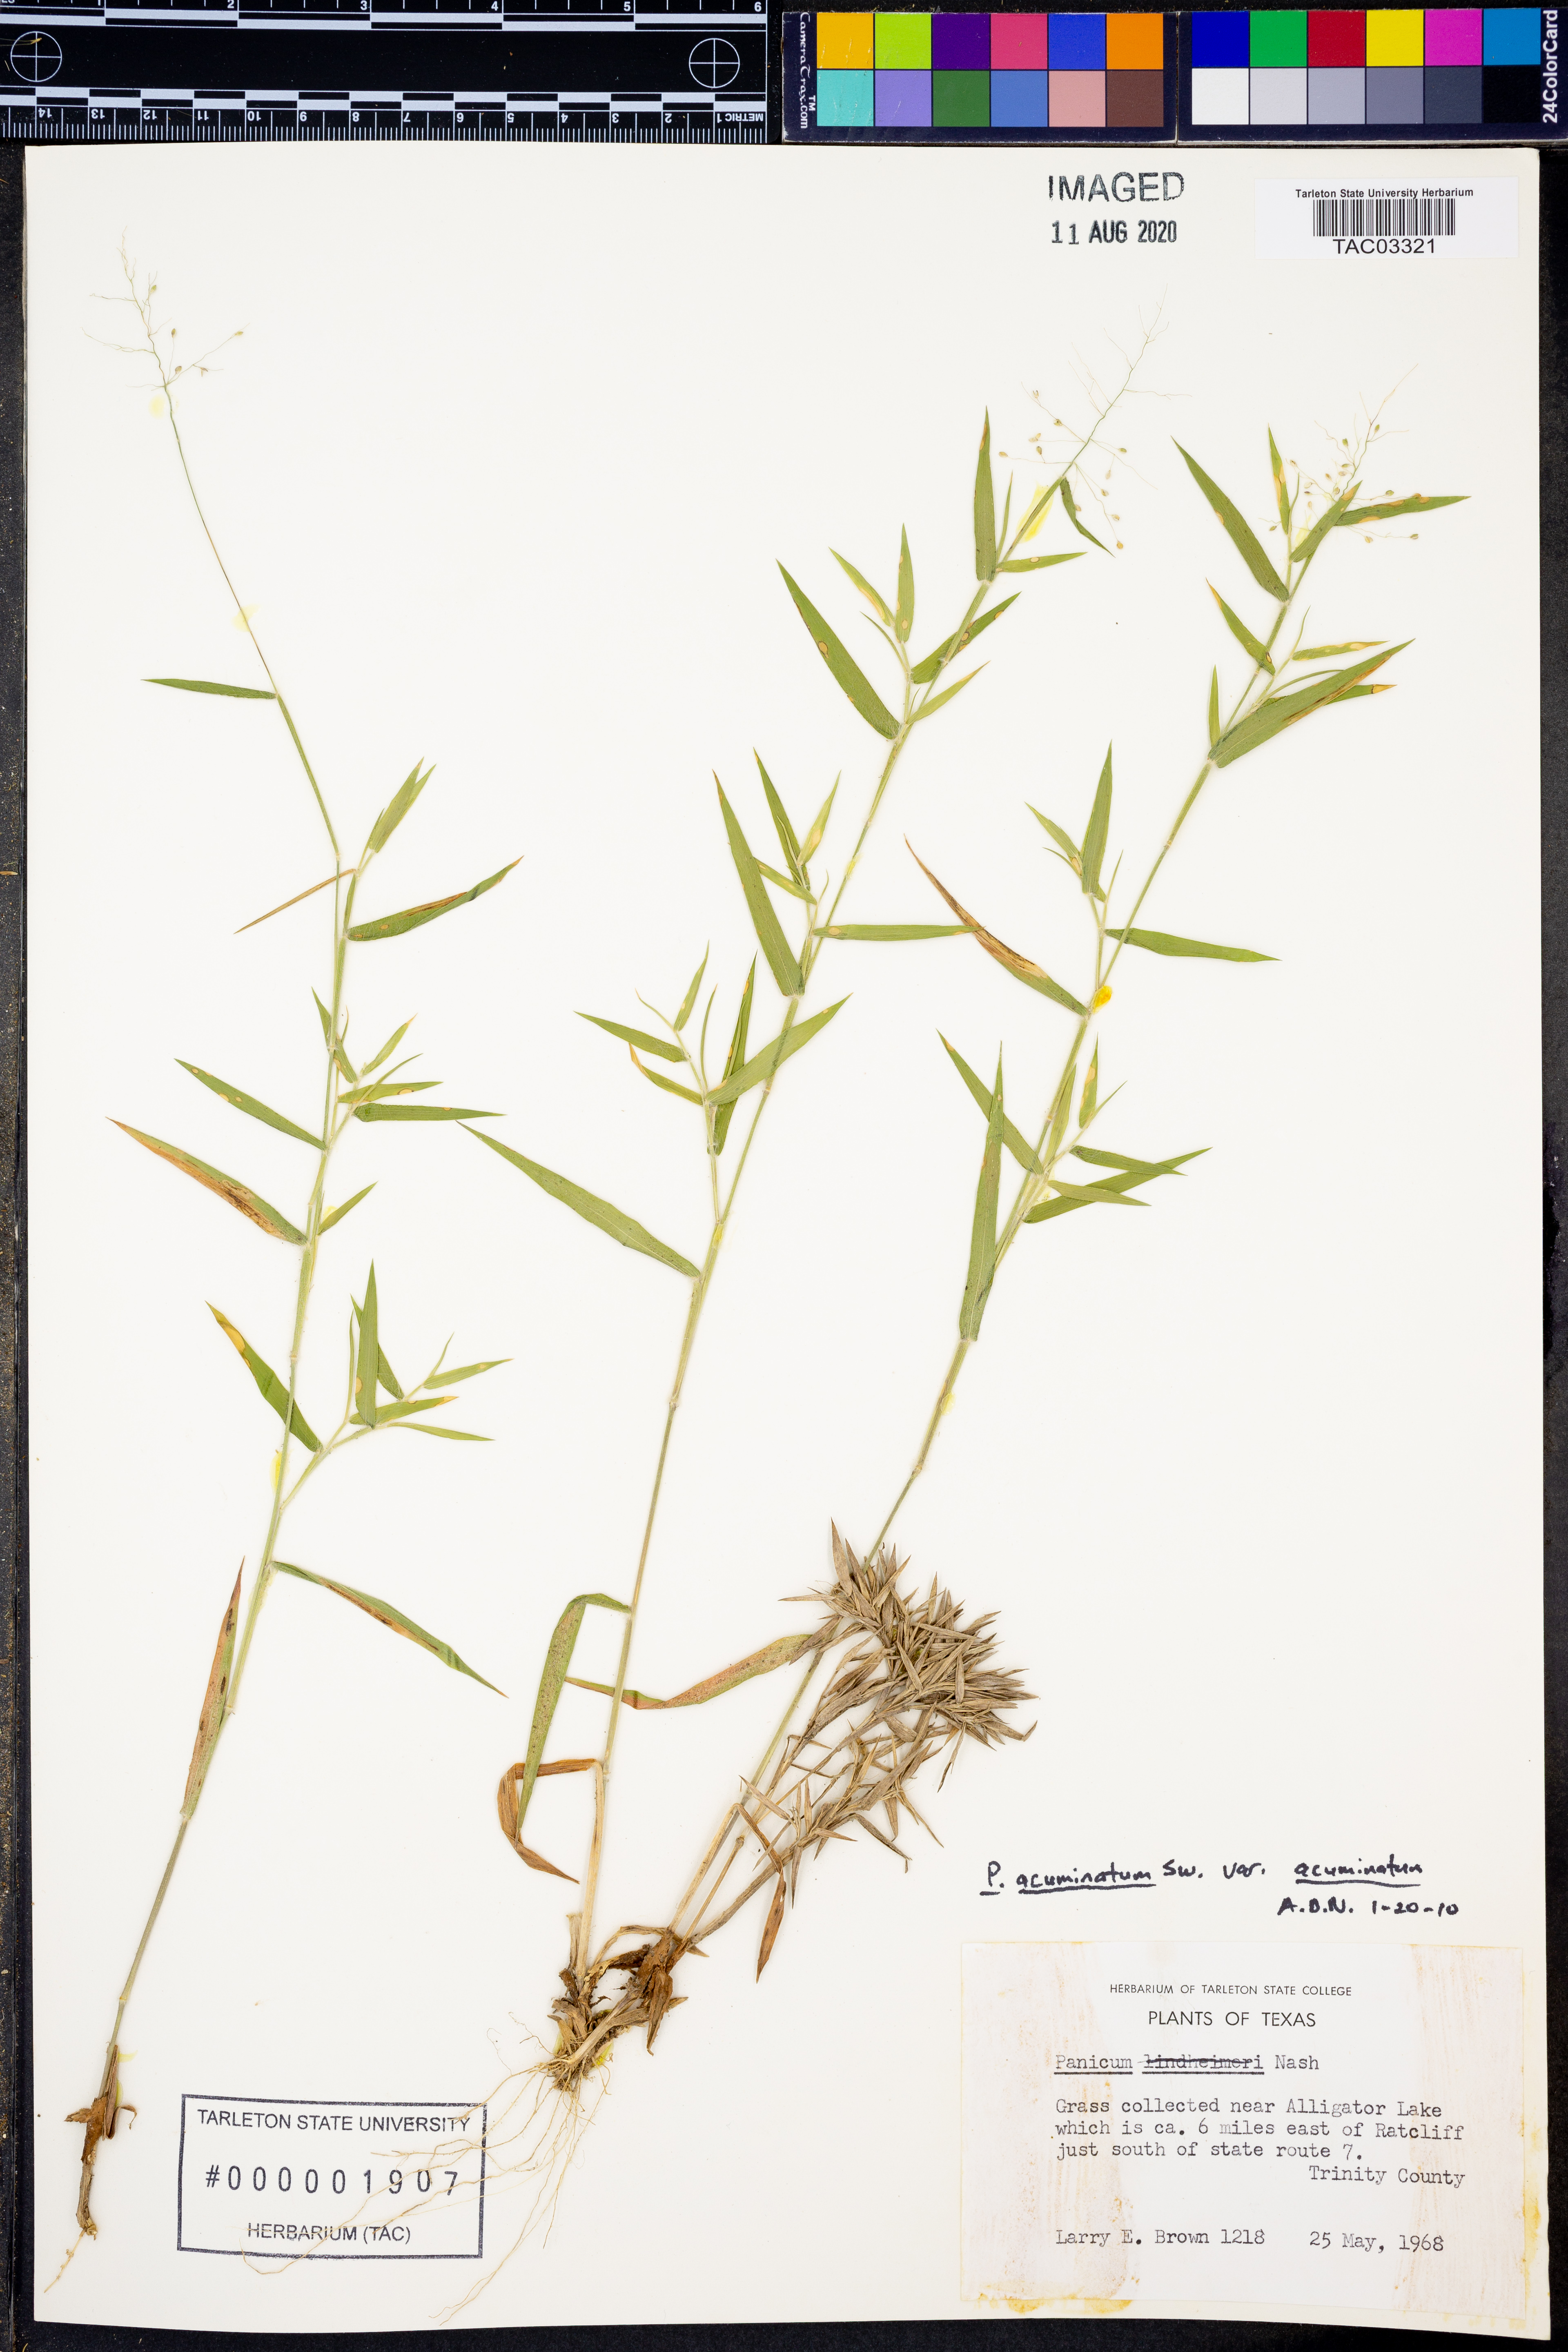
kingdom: Plantae
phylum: Tracheophyta
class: Liliopsida
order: Poales
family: Poaceae
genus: Dichanthelium
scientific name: Dichanthelium acuminatum
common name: Hairy panic grass
